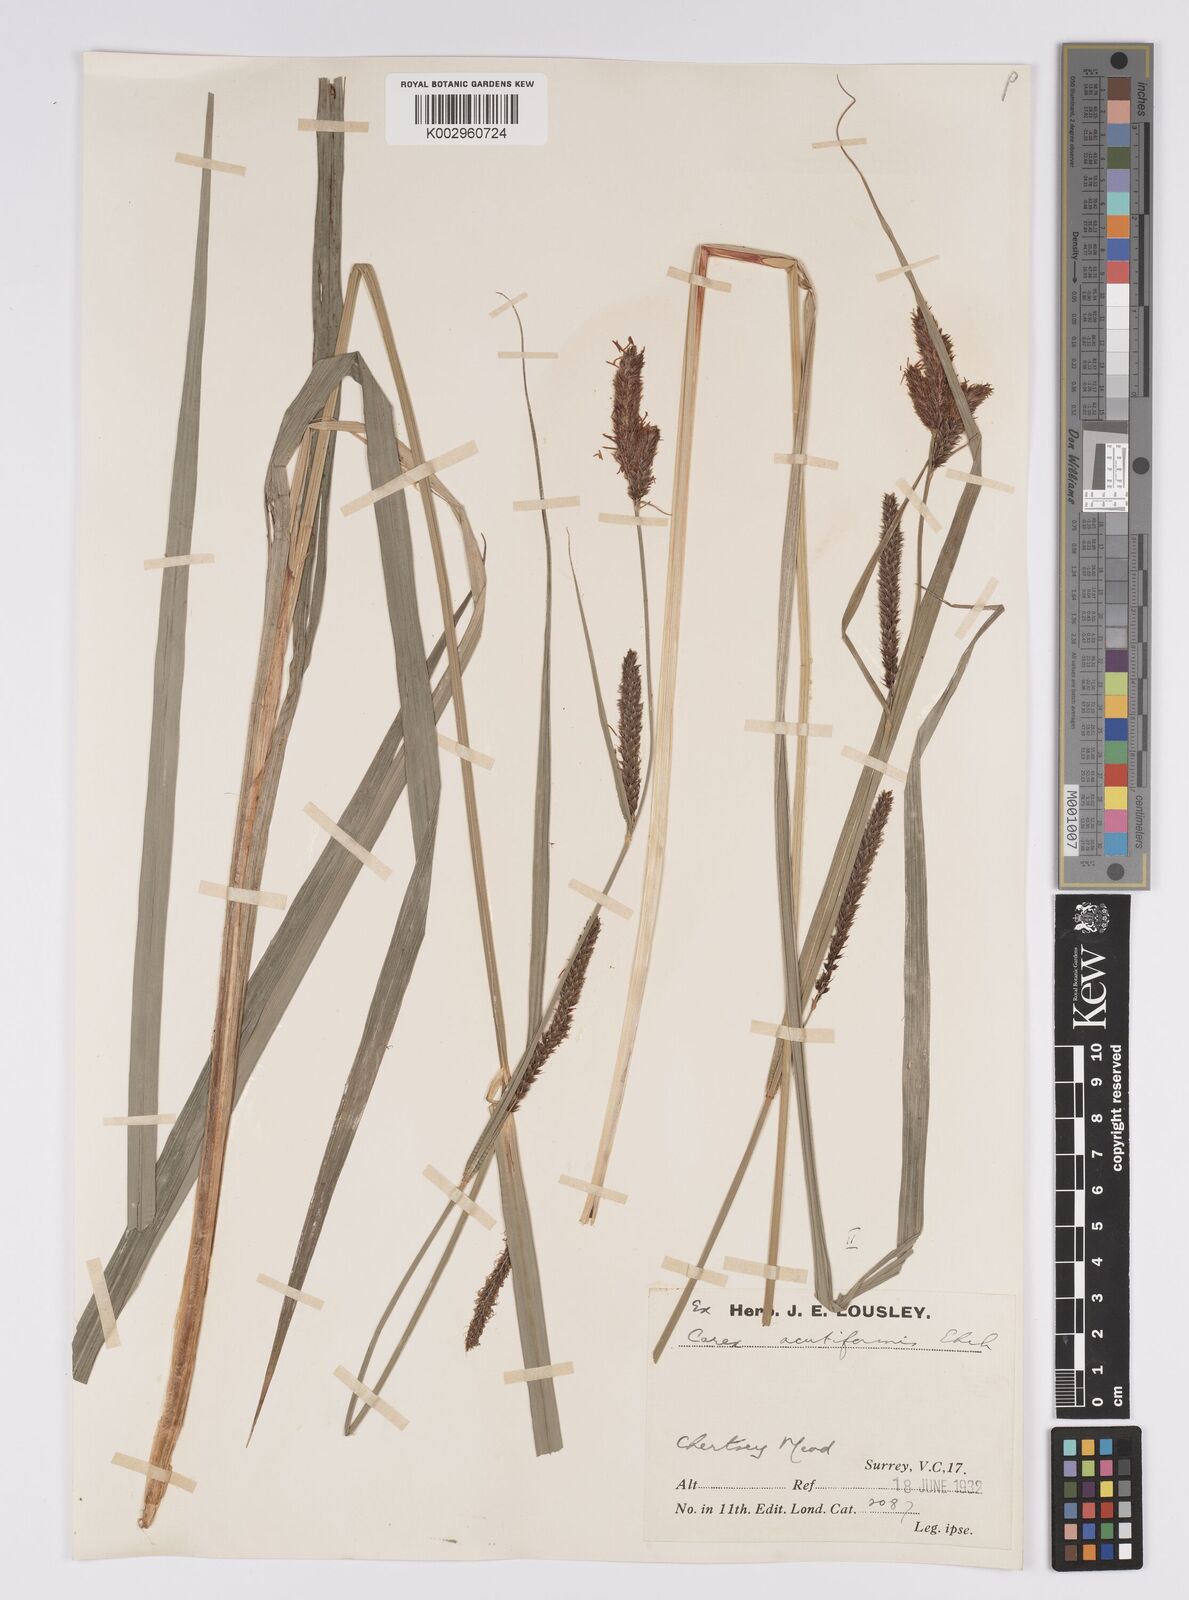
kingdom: Plantae
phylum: Tracheophyta
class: Liliopsida
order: Poales
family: Cyperaceae
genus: Carex
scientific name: Carex acutiformis
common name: Lesser pond-sedge
